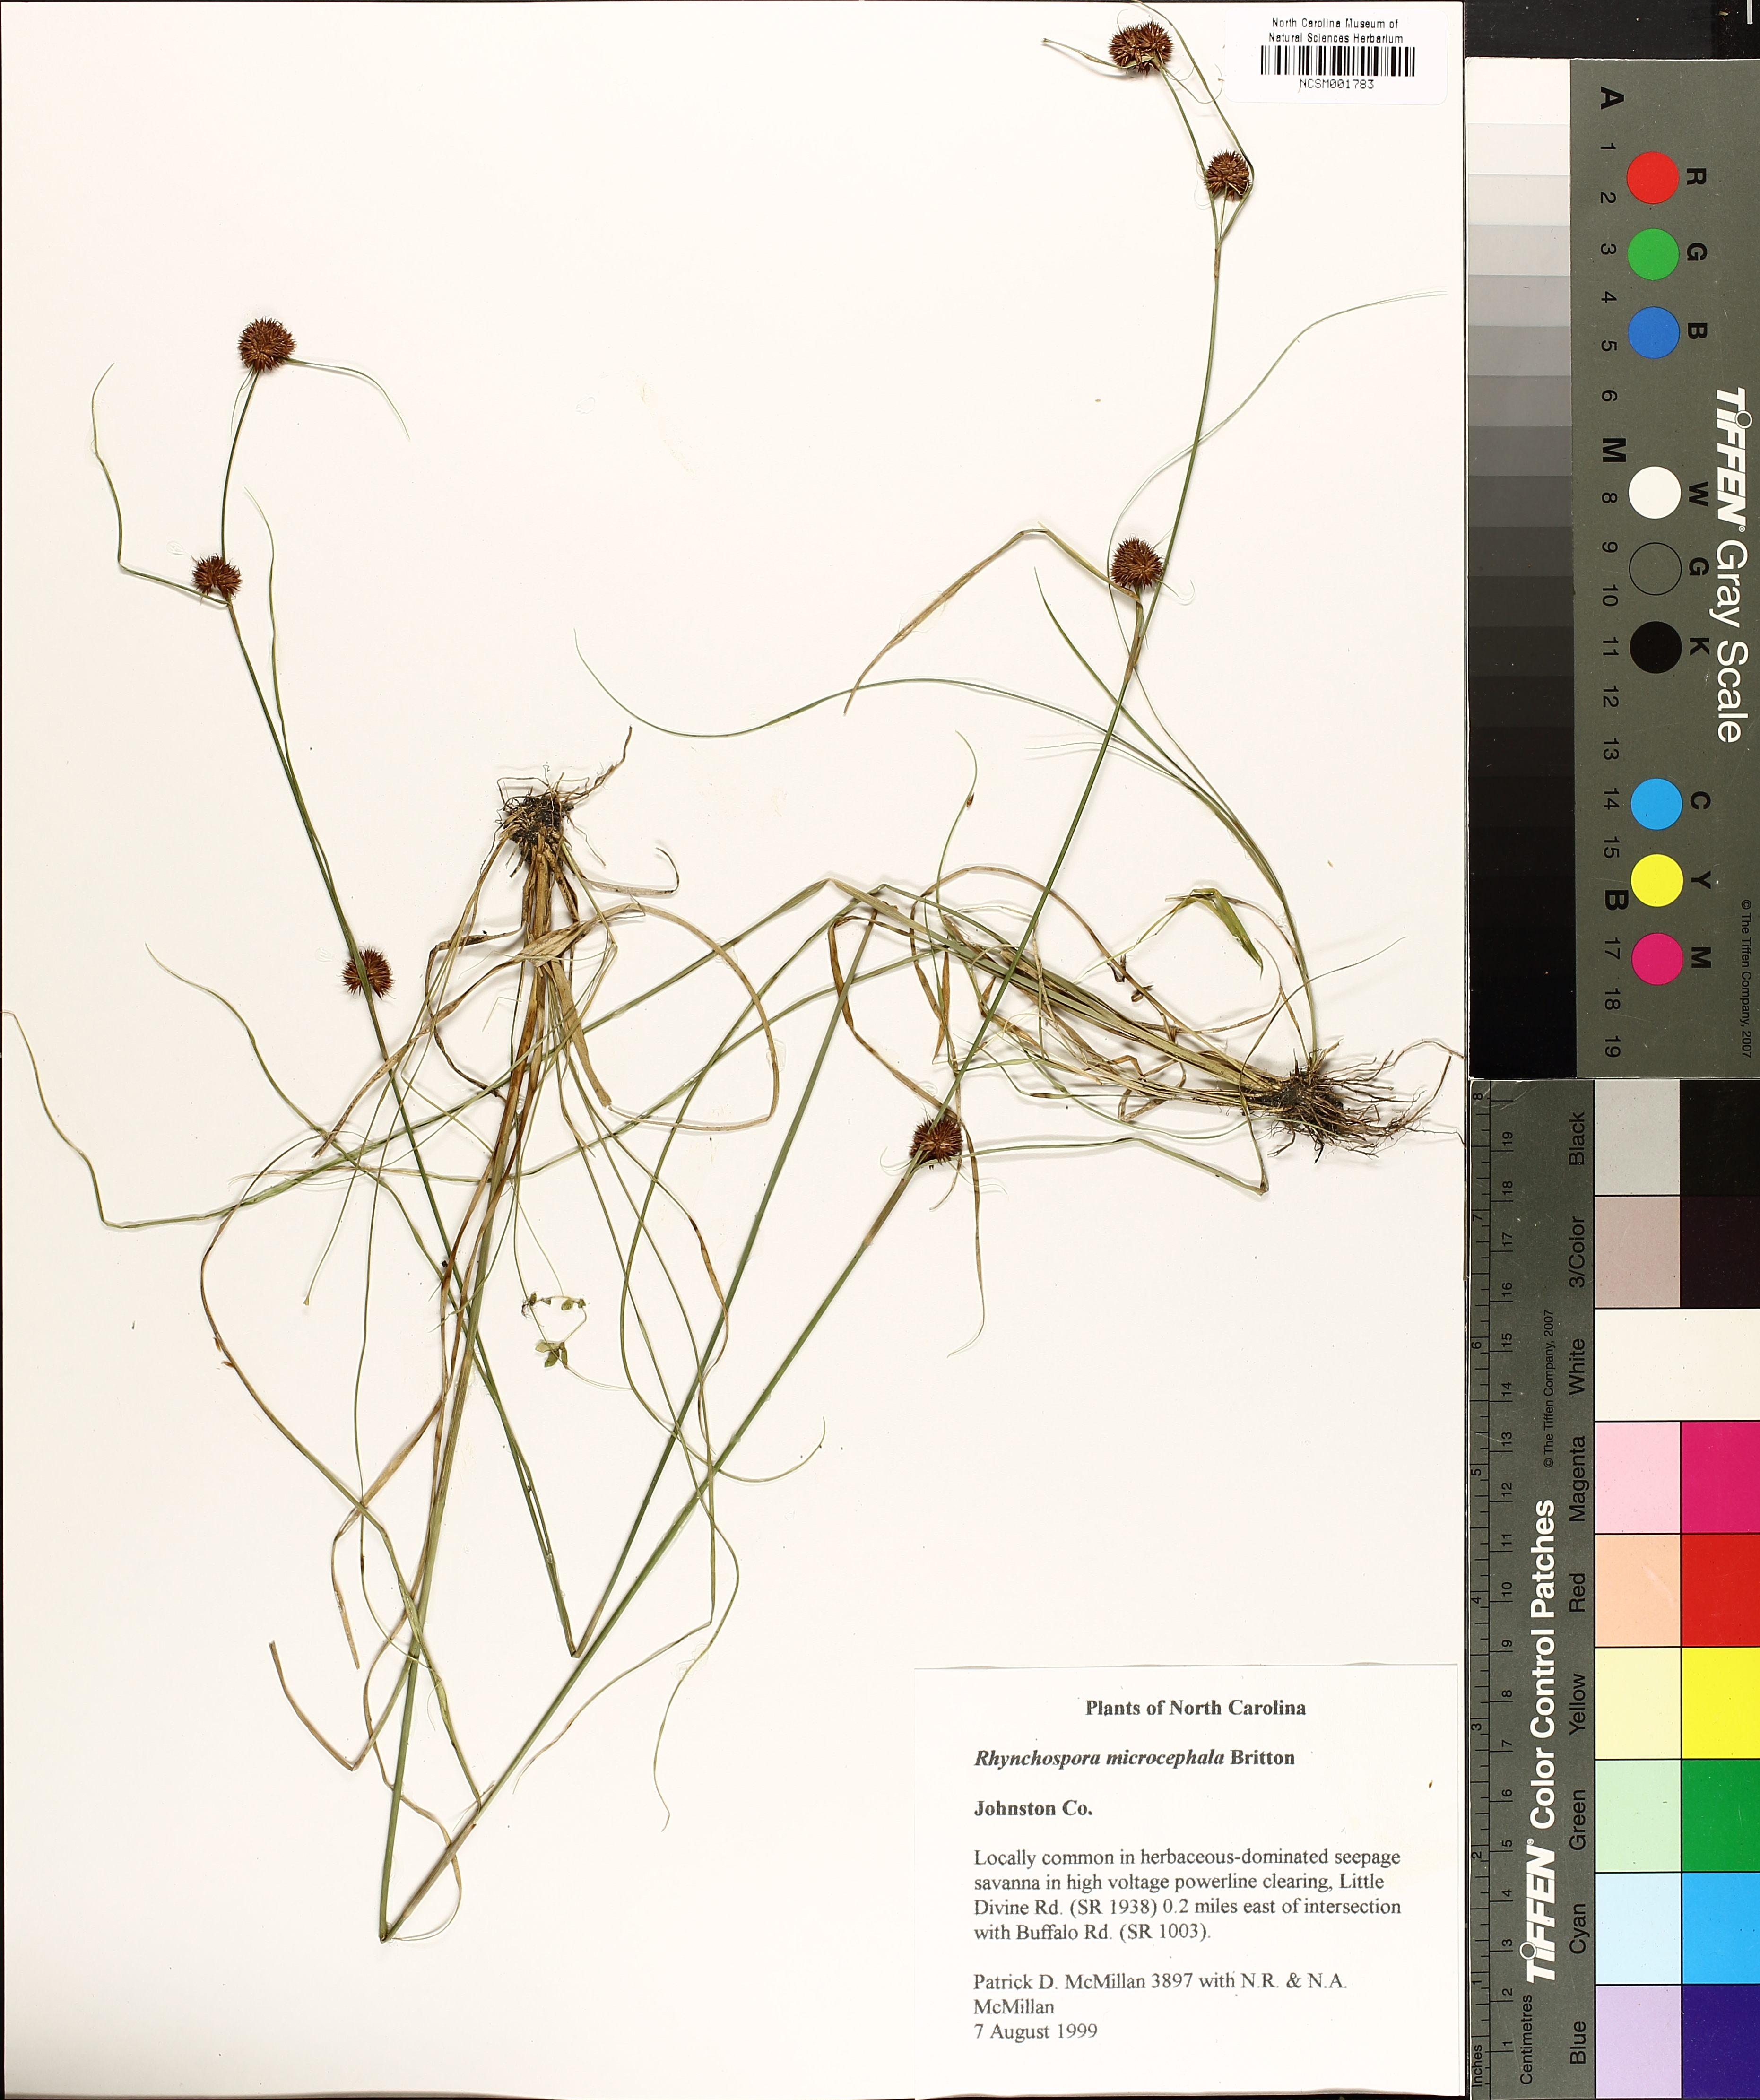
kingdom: Plantae
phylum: Tracheophyta
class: Liliopsida
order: Poales
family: Cyperaceae
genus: Rhynchospora
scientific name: Rhynchospora microcephala
